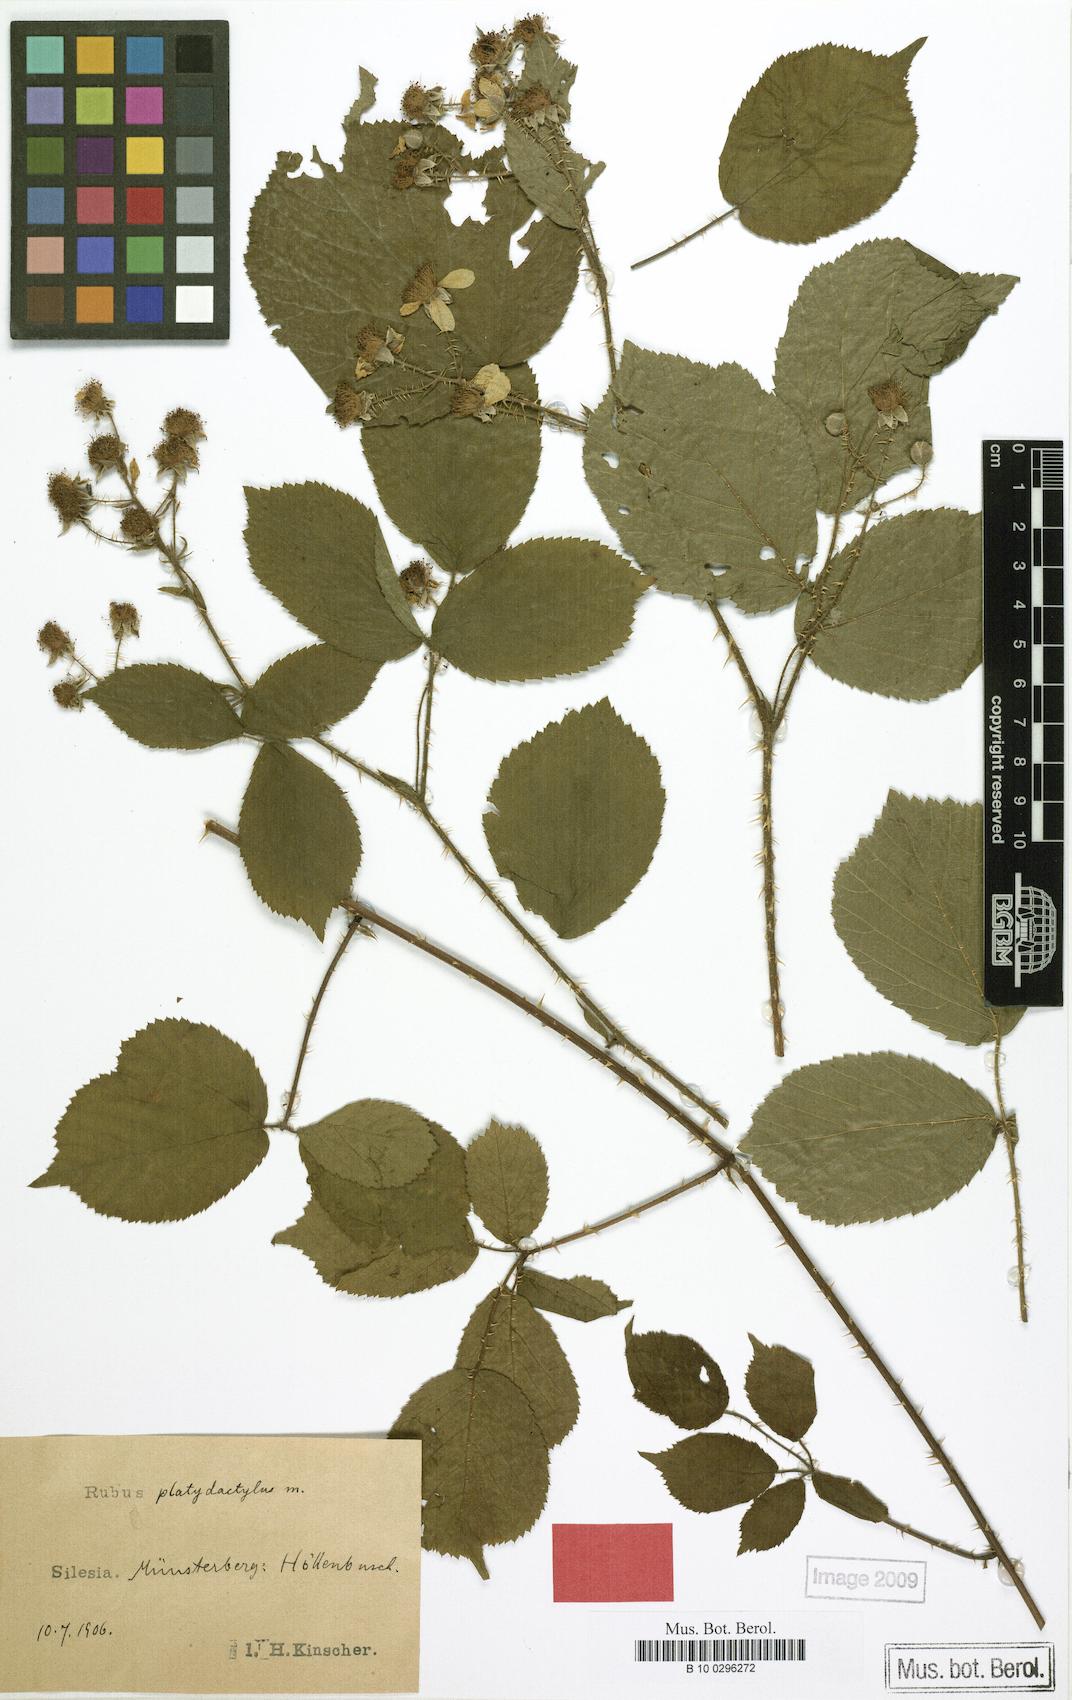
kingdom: Plantae
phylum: Tracheophyta
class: Magnoliopsida
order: Rosales
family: Rosaceae
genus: Rubus
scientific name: Rubus platydactylus
